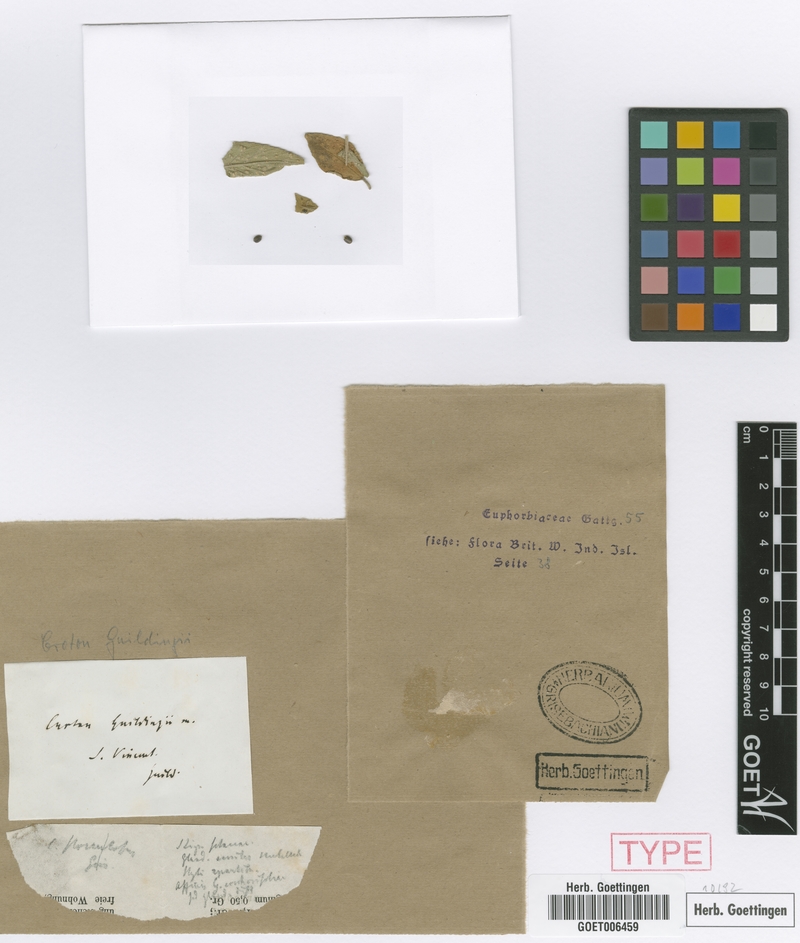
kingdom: Plantae
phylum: Tracheophyta
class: Magnoliopsida
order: Malpighiales
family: Euphorbiaceae
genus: Croton
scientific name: Croton suavis
